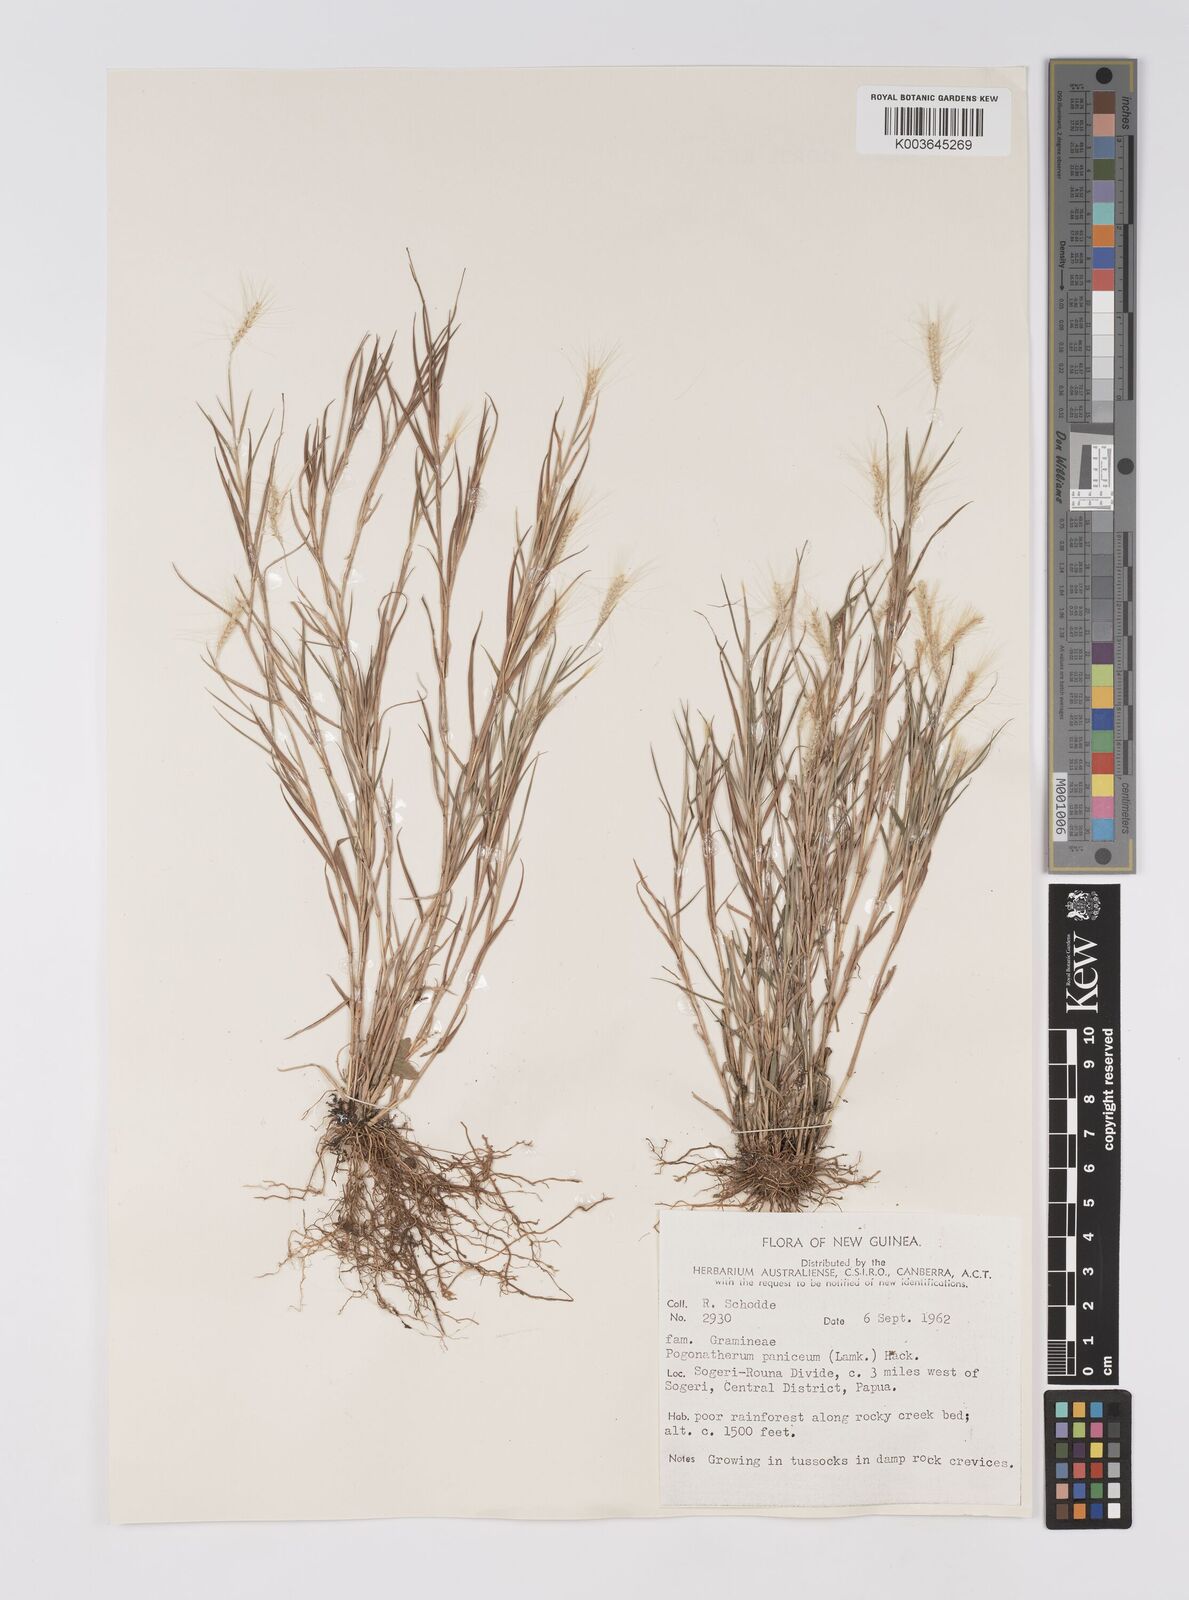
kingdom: Plantae
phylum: Tracheophyta
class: Liliopsida
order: Poales
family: Poaceae
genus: Pogonatherum
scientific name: Pogonatherum crinitum
